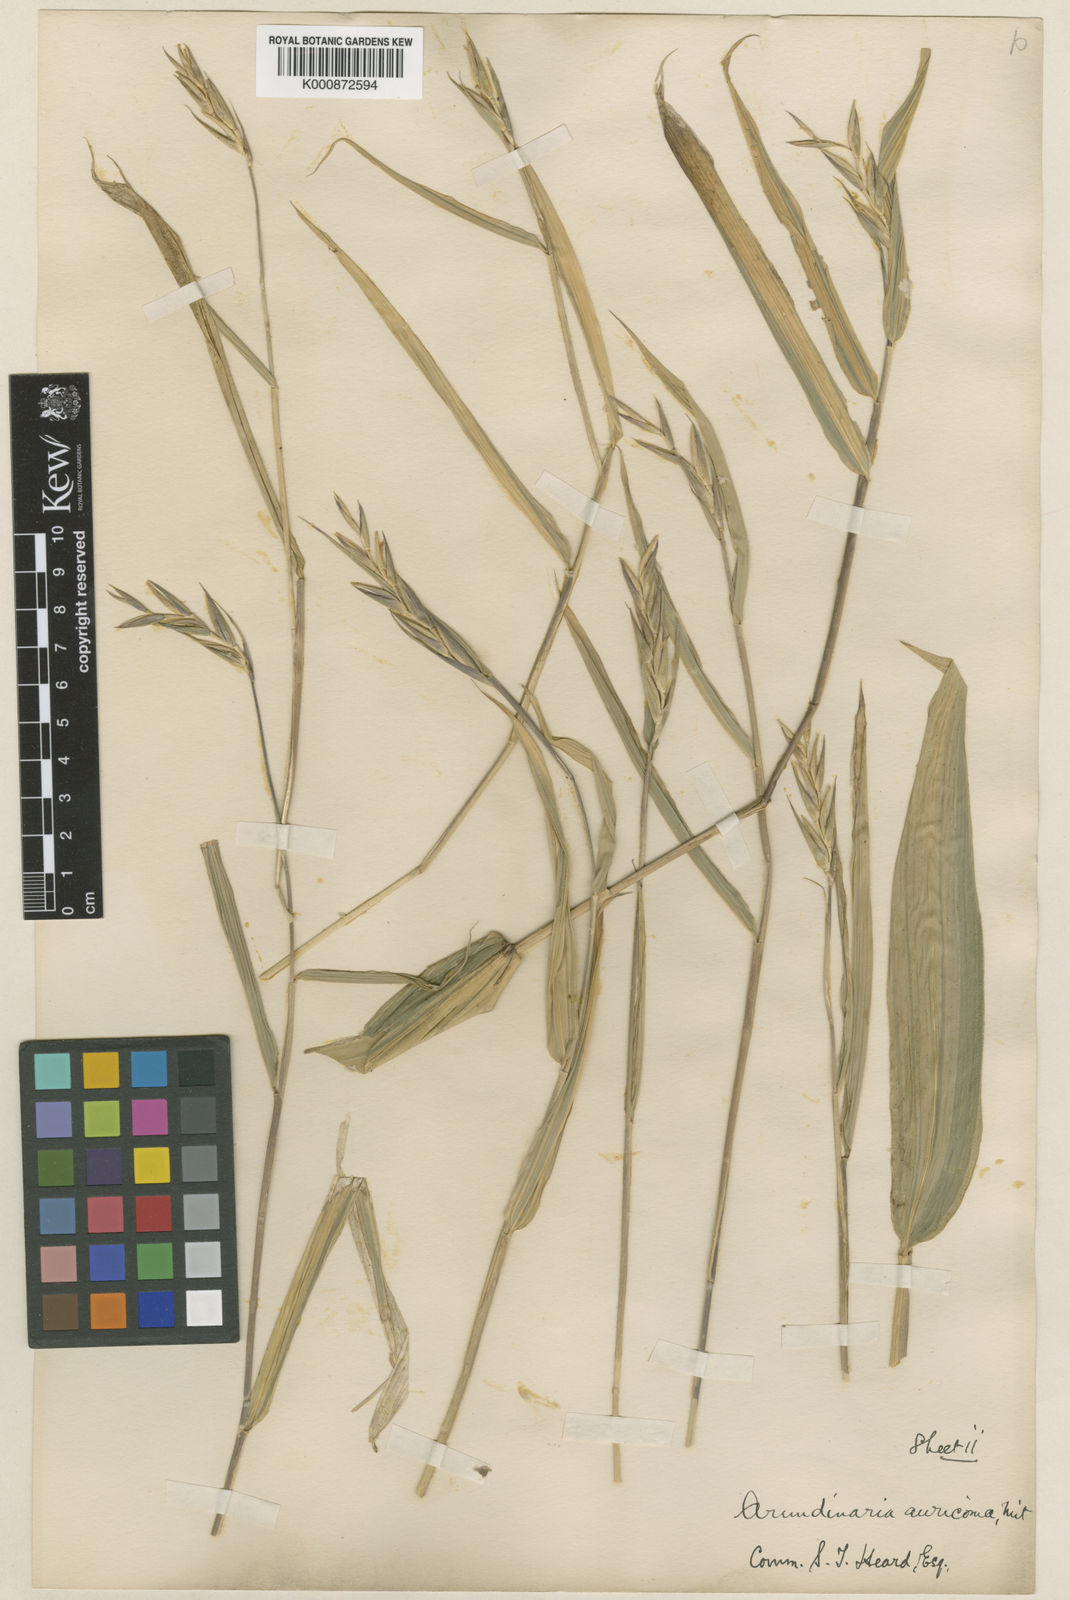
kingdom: Plantae
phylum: Tracheophyta
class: Liliopsida
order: Poales
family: Poaceae
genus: Pleioblastus
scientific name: Pleioblastus viridistriatus
